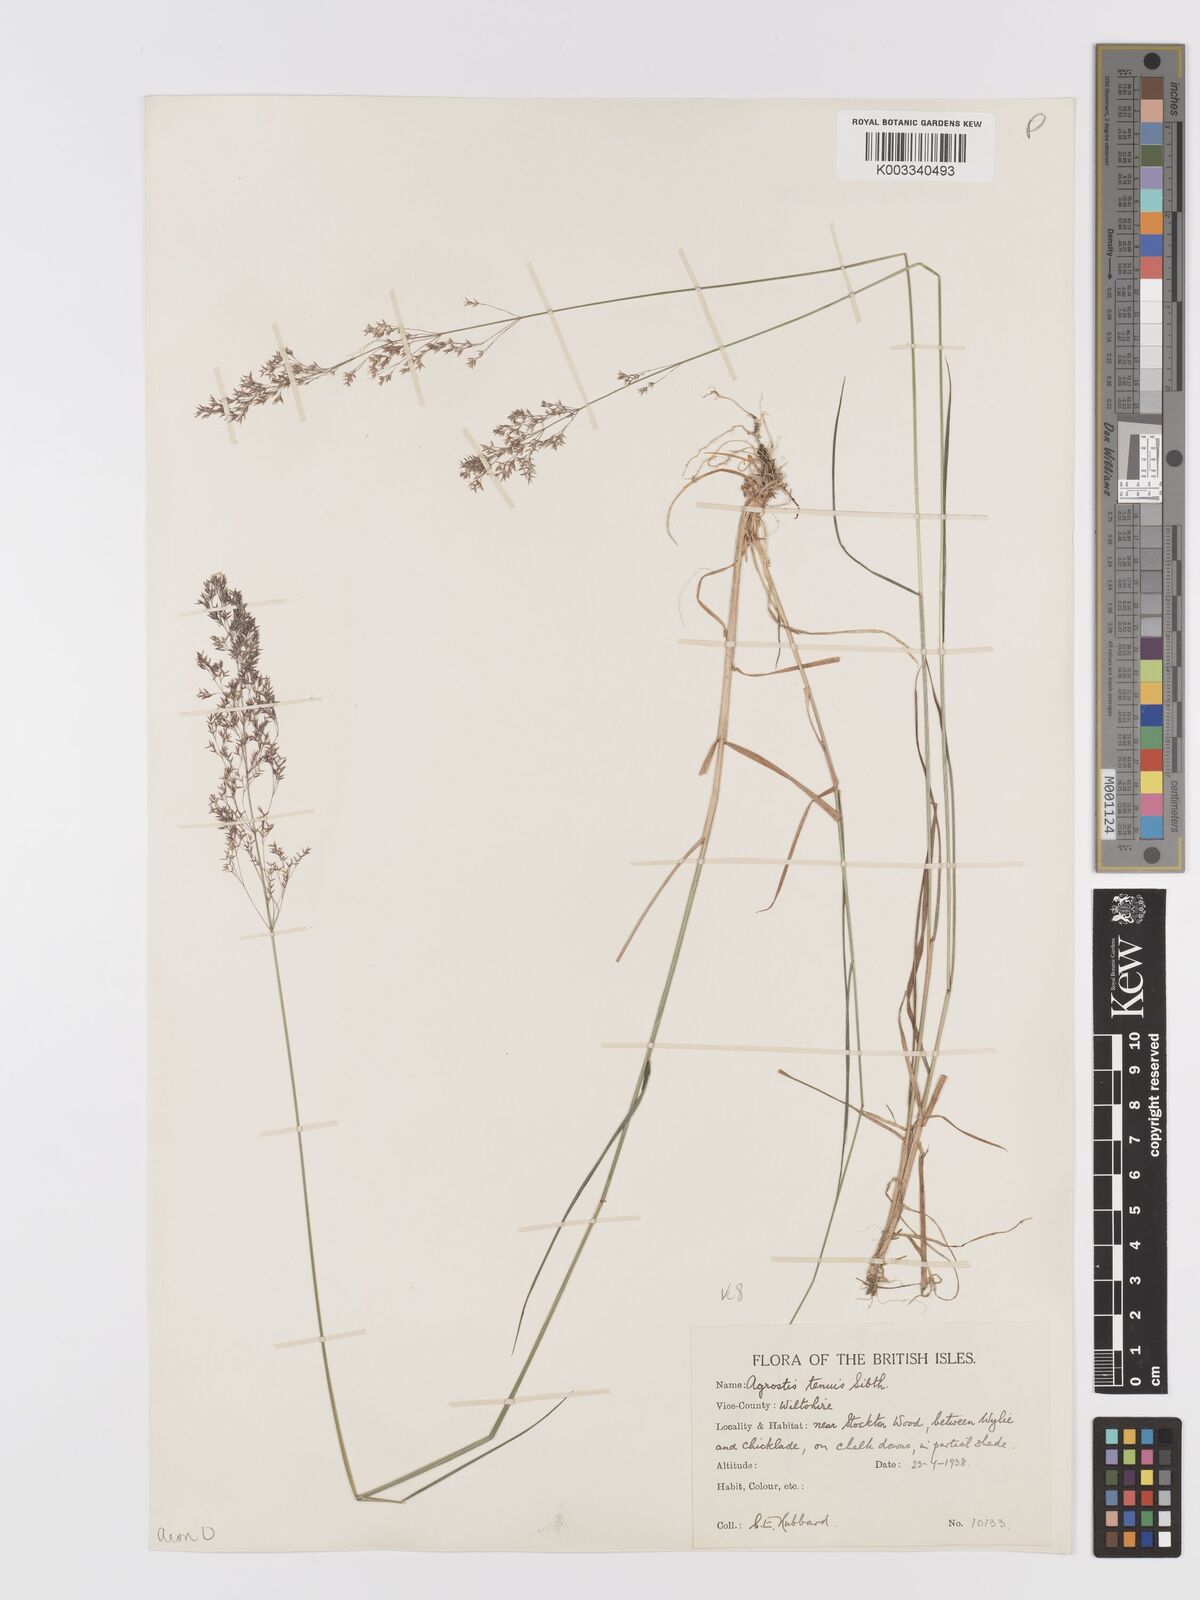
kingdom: Plantae
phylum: Tracheophyta
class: Liliopsida
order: Poales
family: Poaceae
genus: Agrostis
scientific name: Agrostis
